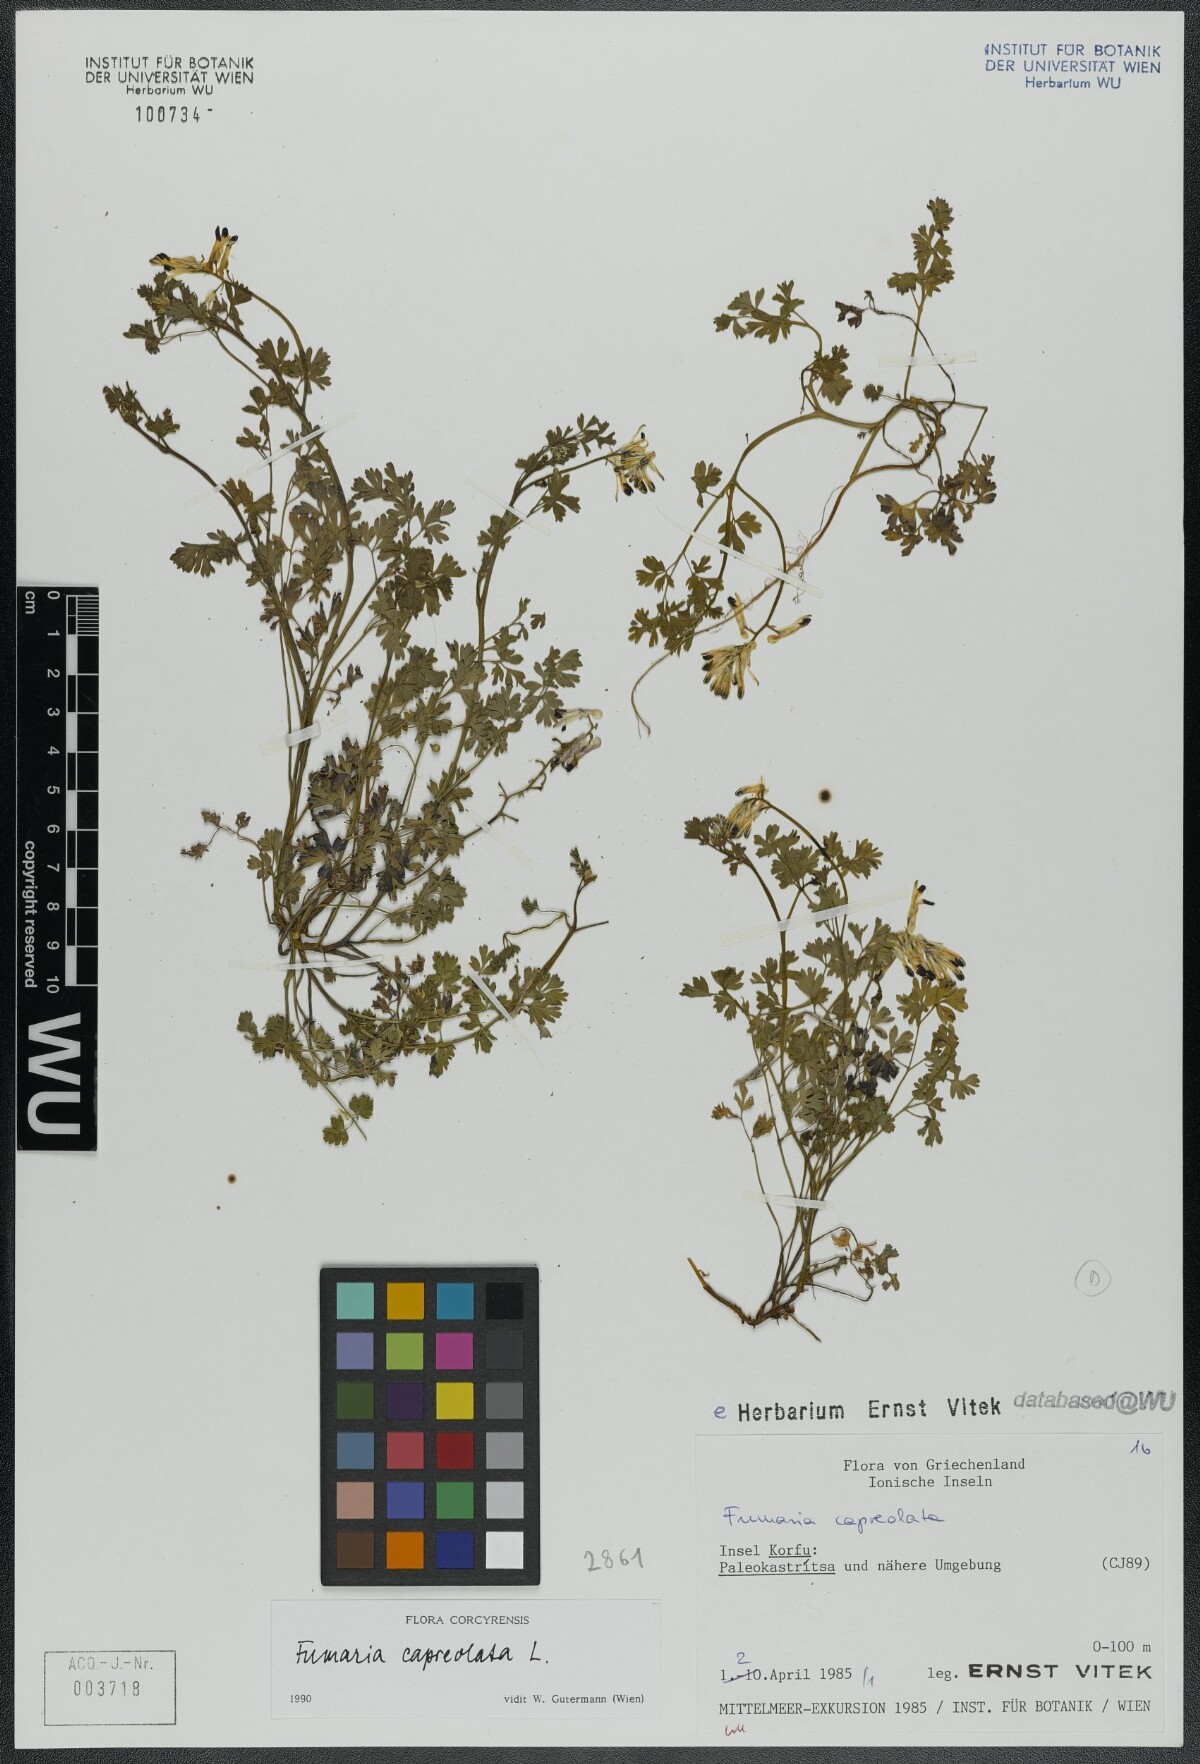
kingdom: Plantae
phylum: Tracheophyta
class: Magnoliopsida
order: Ranunculales
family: Papaveraceae
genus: Fumaria
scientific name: Fumaria capreolata
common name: White ramping-fumitory
